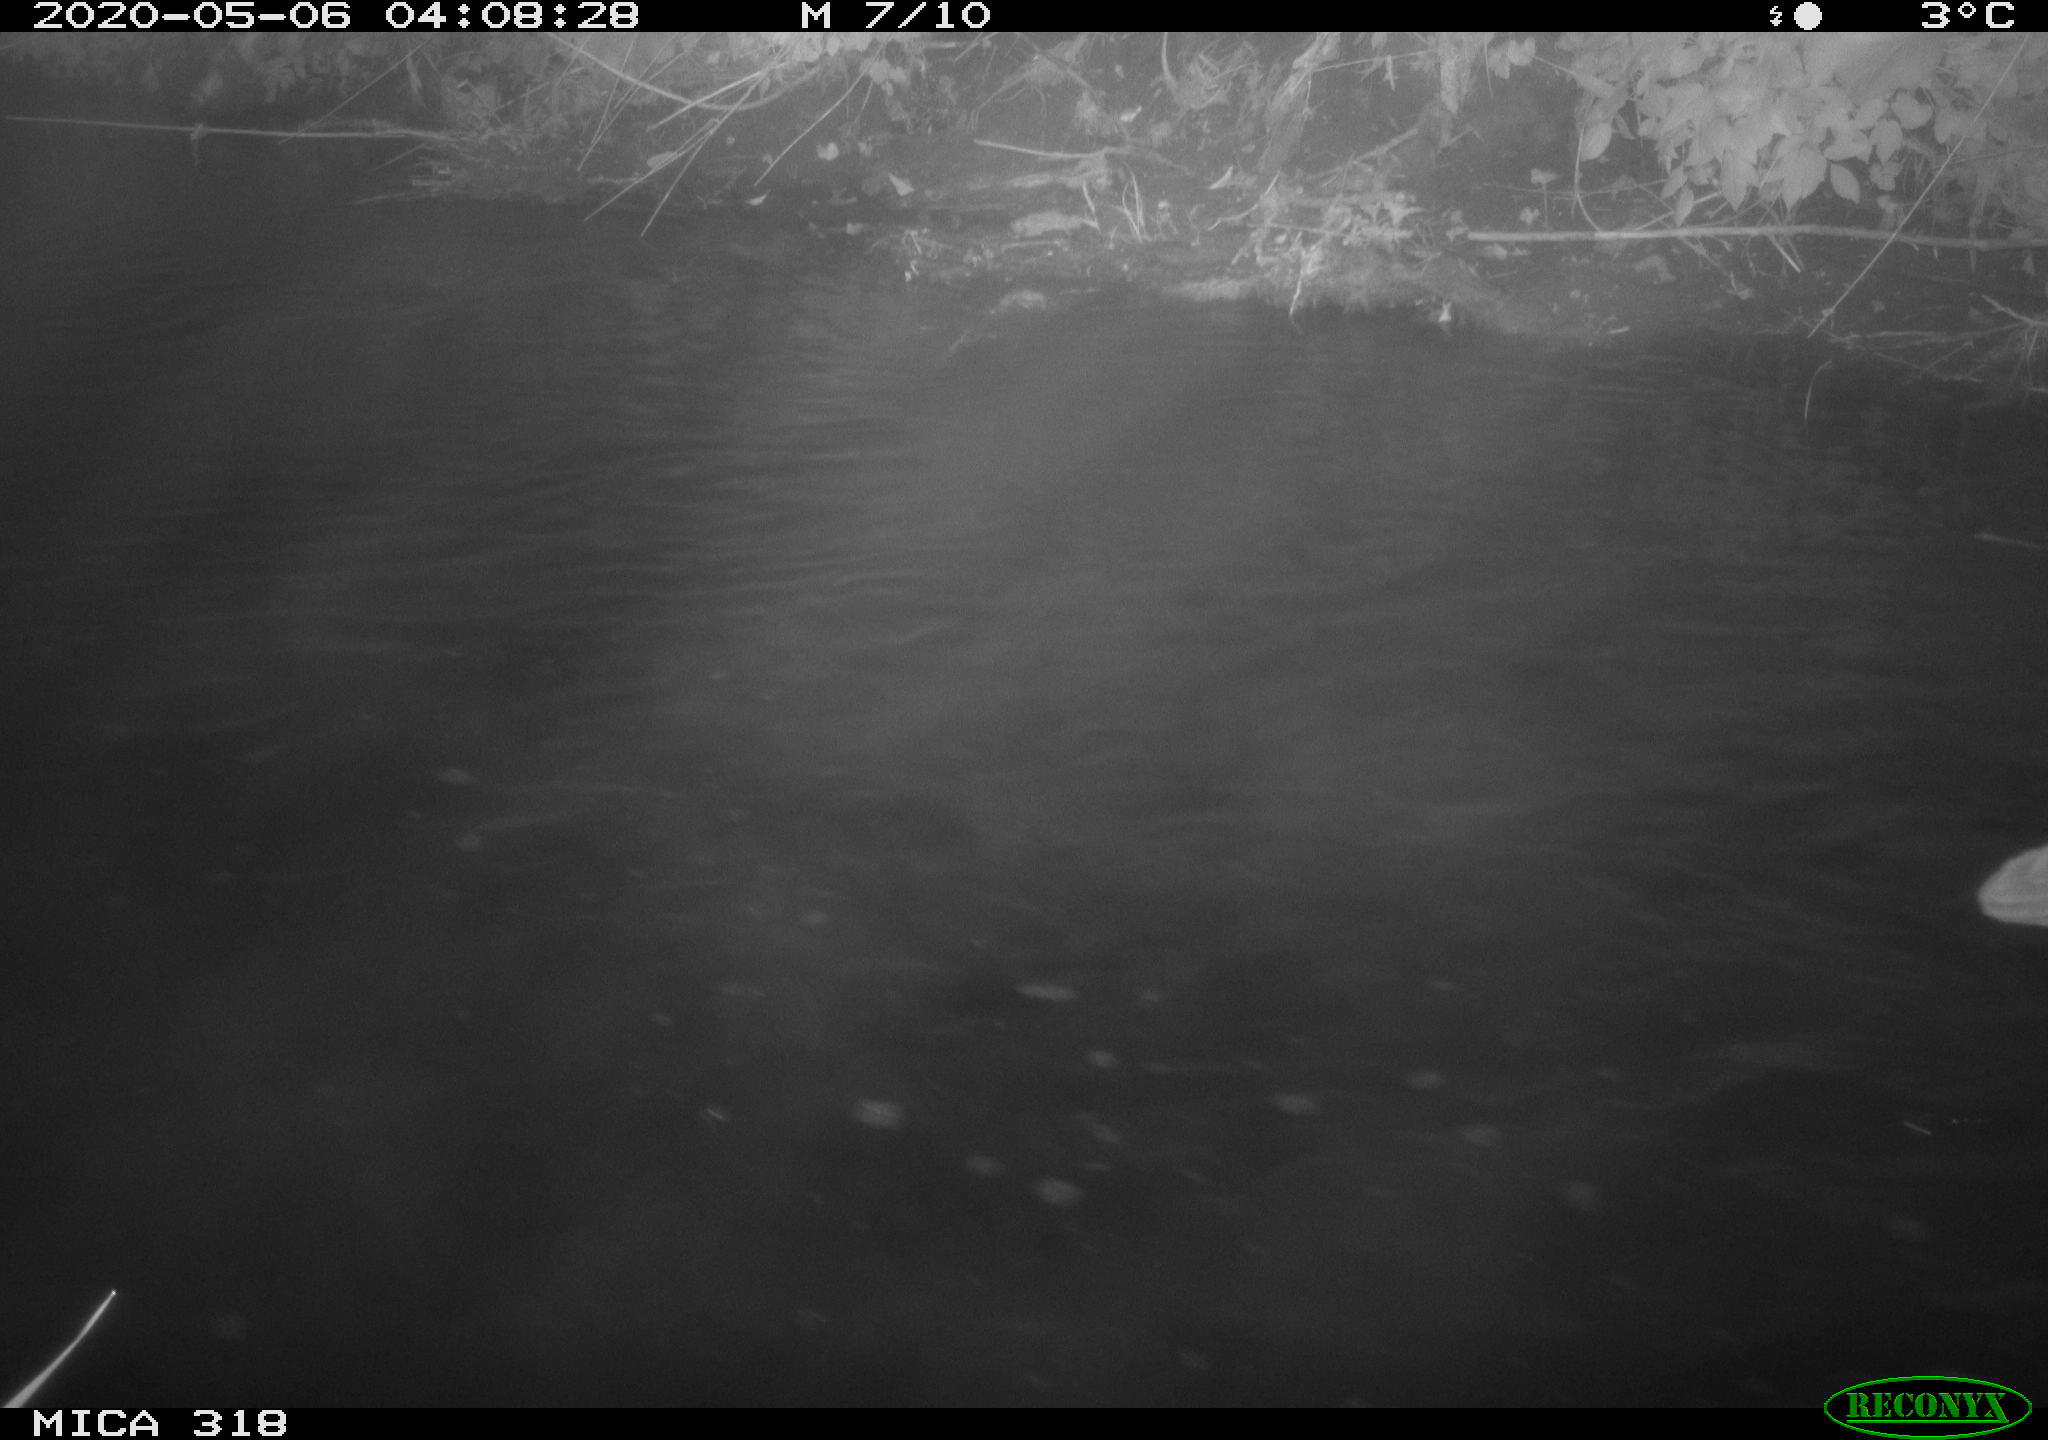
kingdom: Animalia
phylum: Chordata
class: Aves
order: Pelecaniformes
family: Ardeidae
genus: Ardea
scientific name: Ardea cinerea
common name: Grey heron
